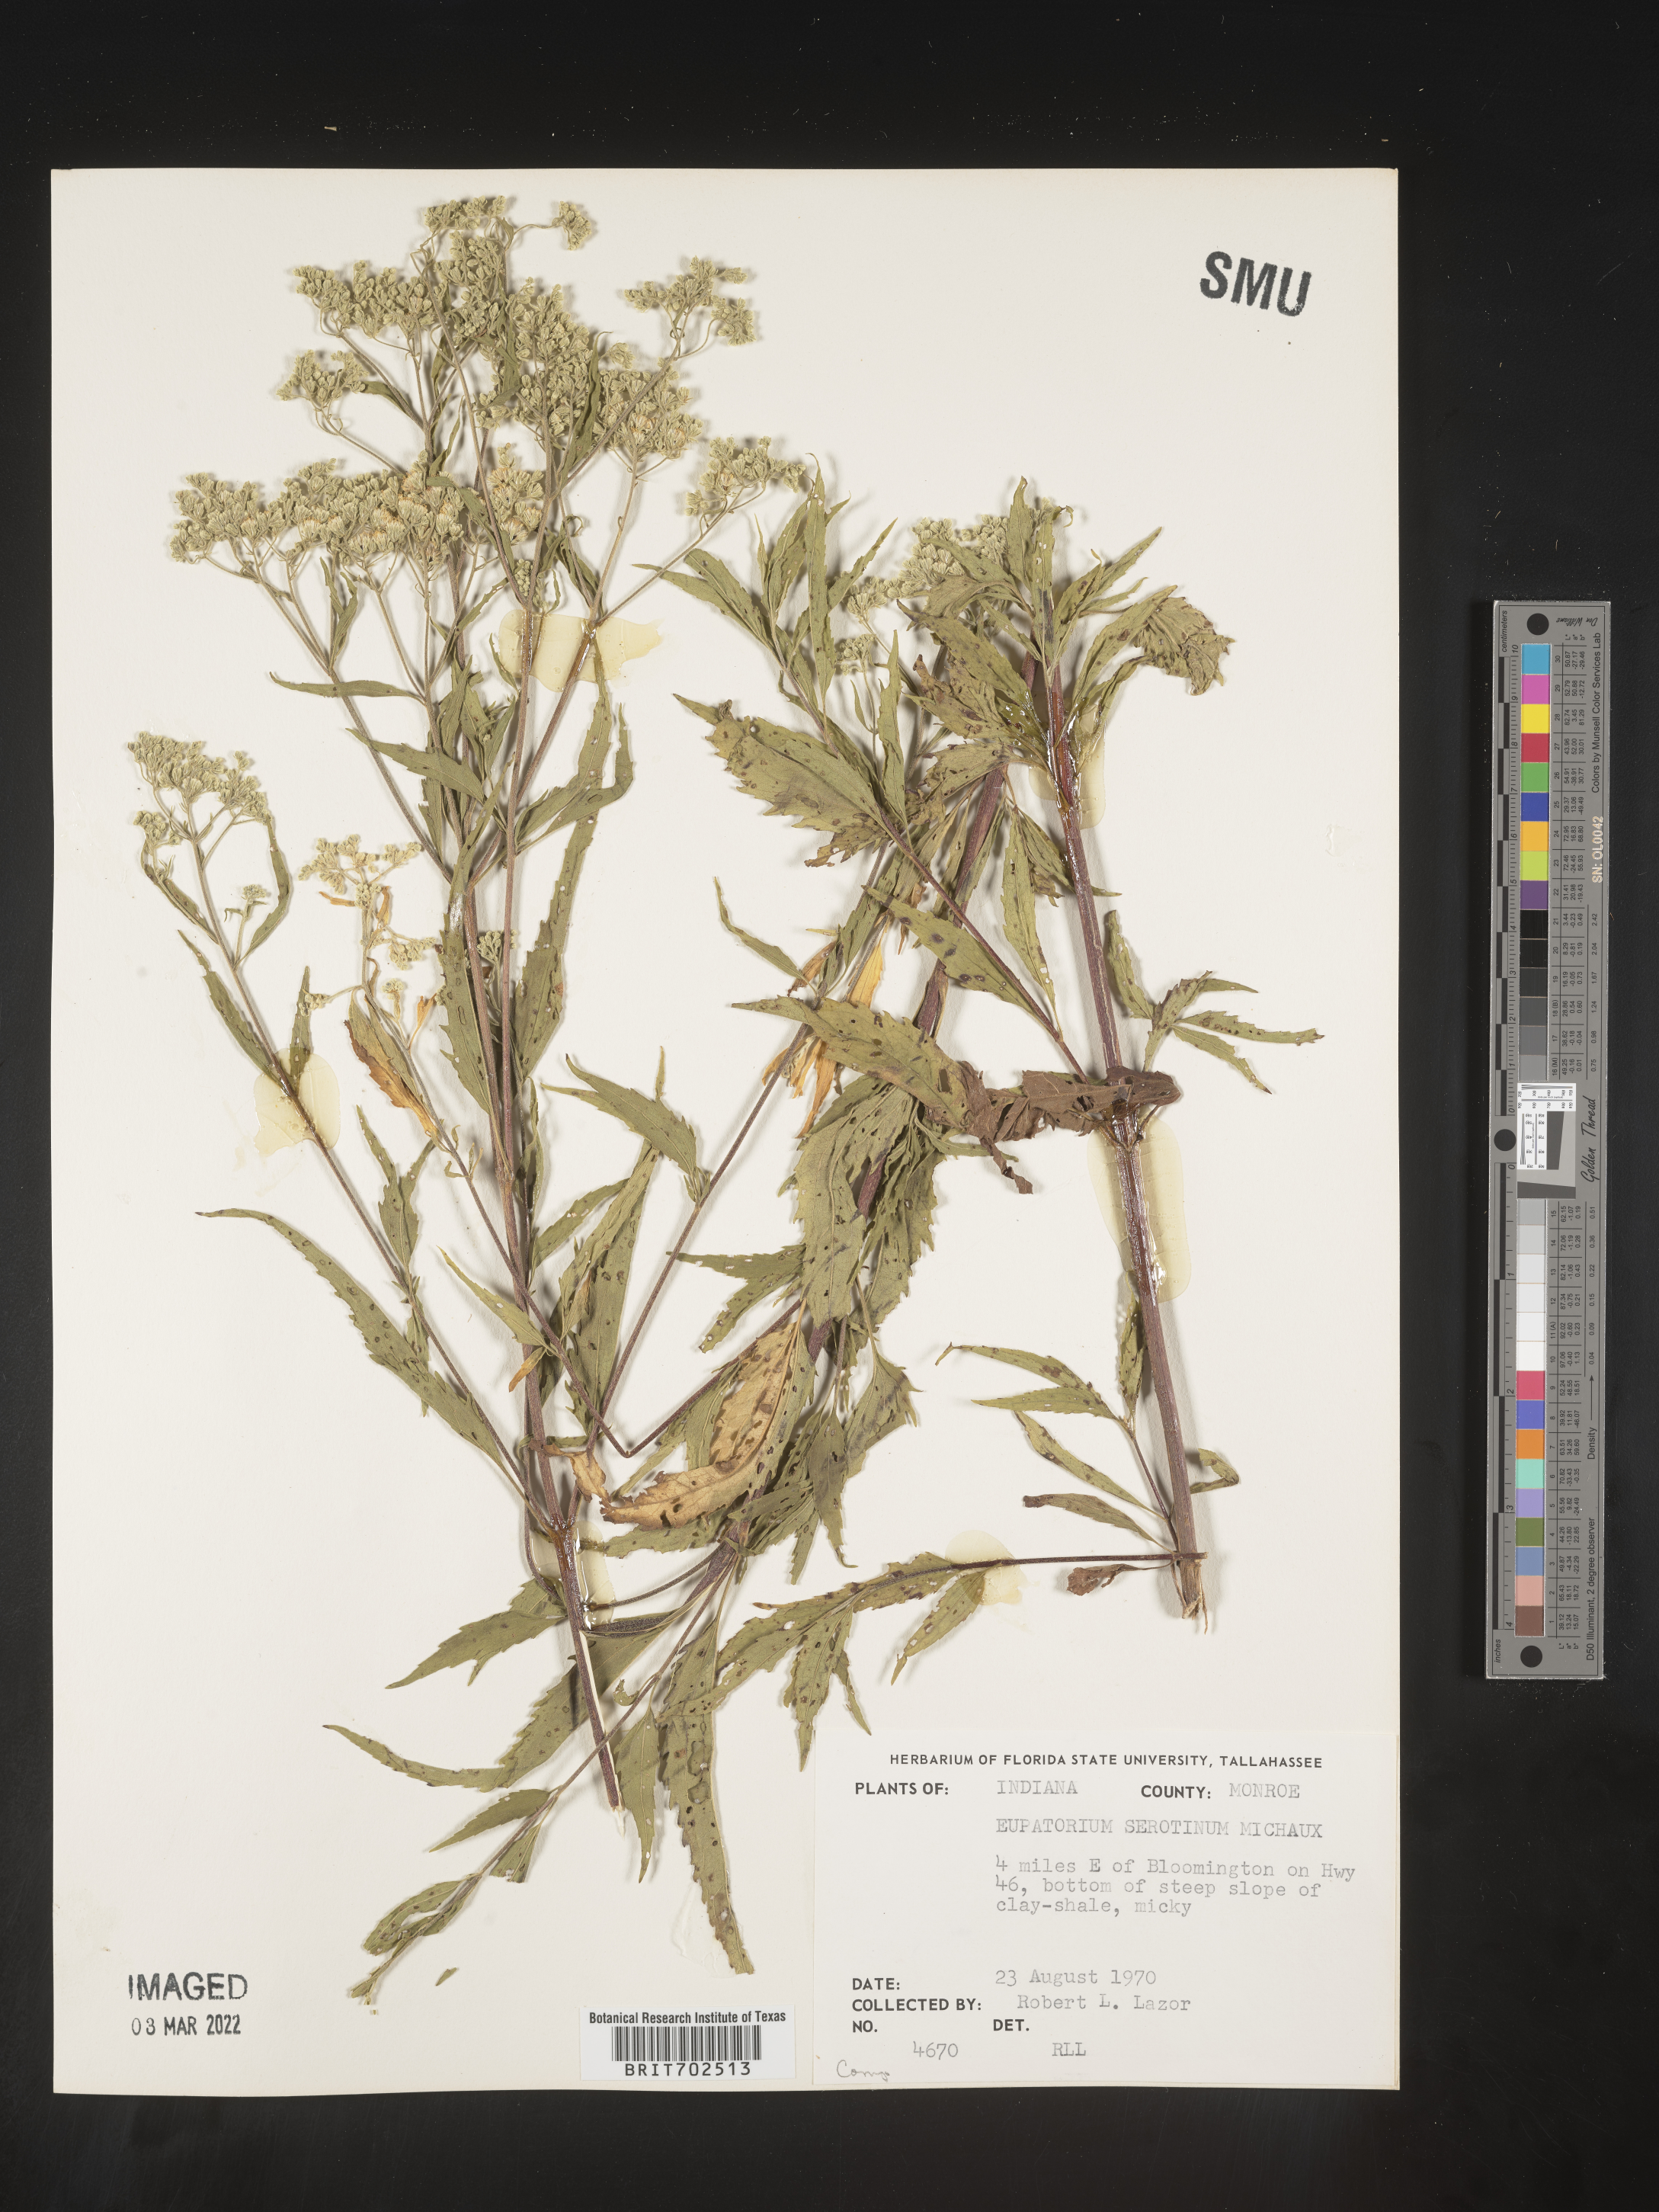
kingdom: Plantae
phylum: Tracheophyta
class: Magnoliopsida
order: Asterales
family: Asteraceae
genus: Eupatorium
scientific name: Eupatorium serotinum
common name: Late boneset
